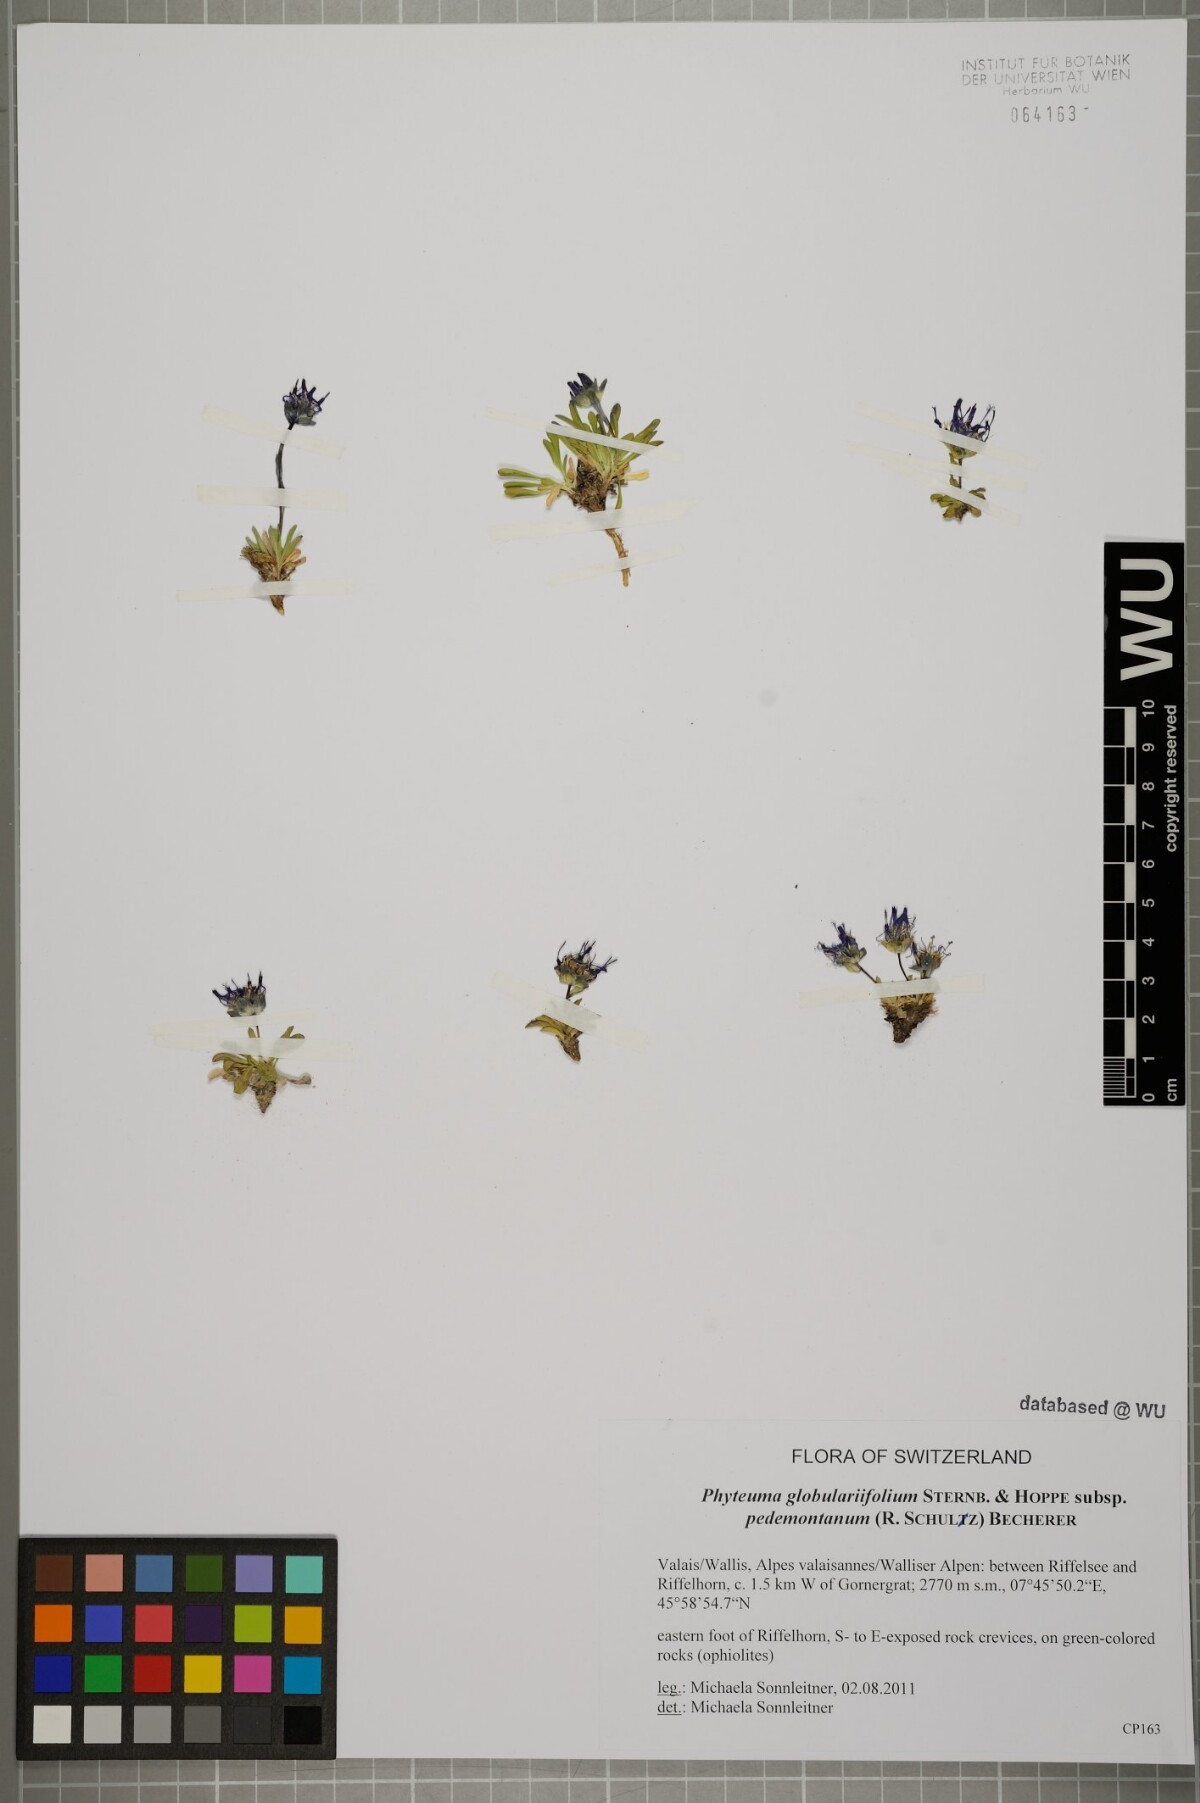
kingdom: Plantae
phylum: Tracheophyta
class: Magnoliopsida
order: Asterales
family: Campanulaceae
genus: Phyteuma
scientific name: Phyteuma globulariifolium
